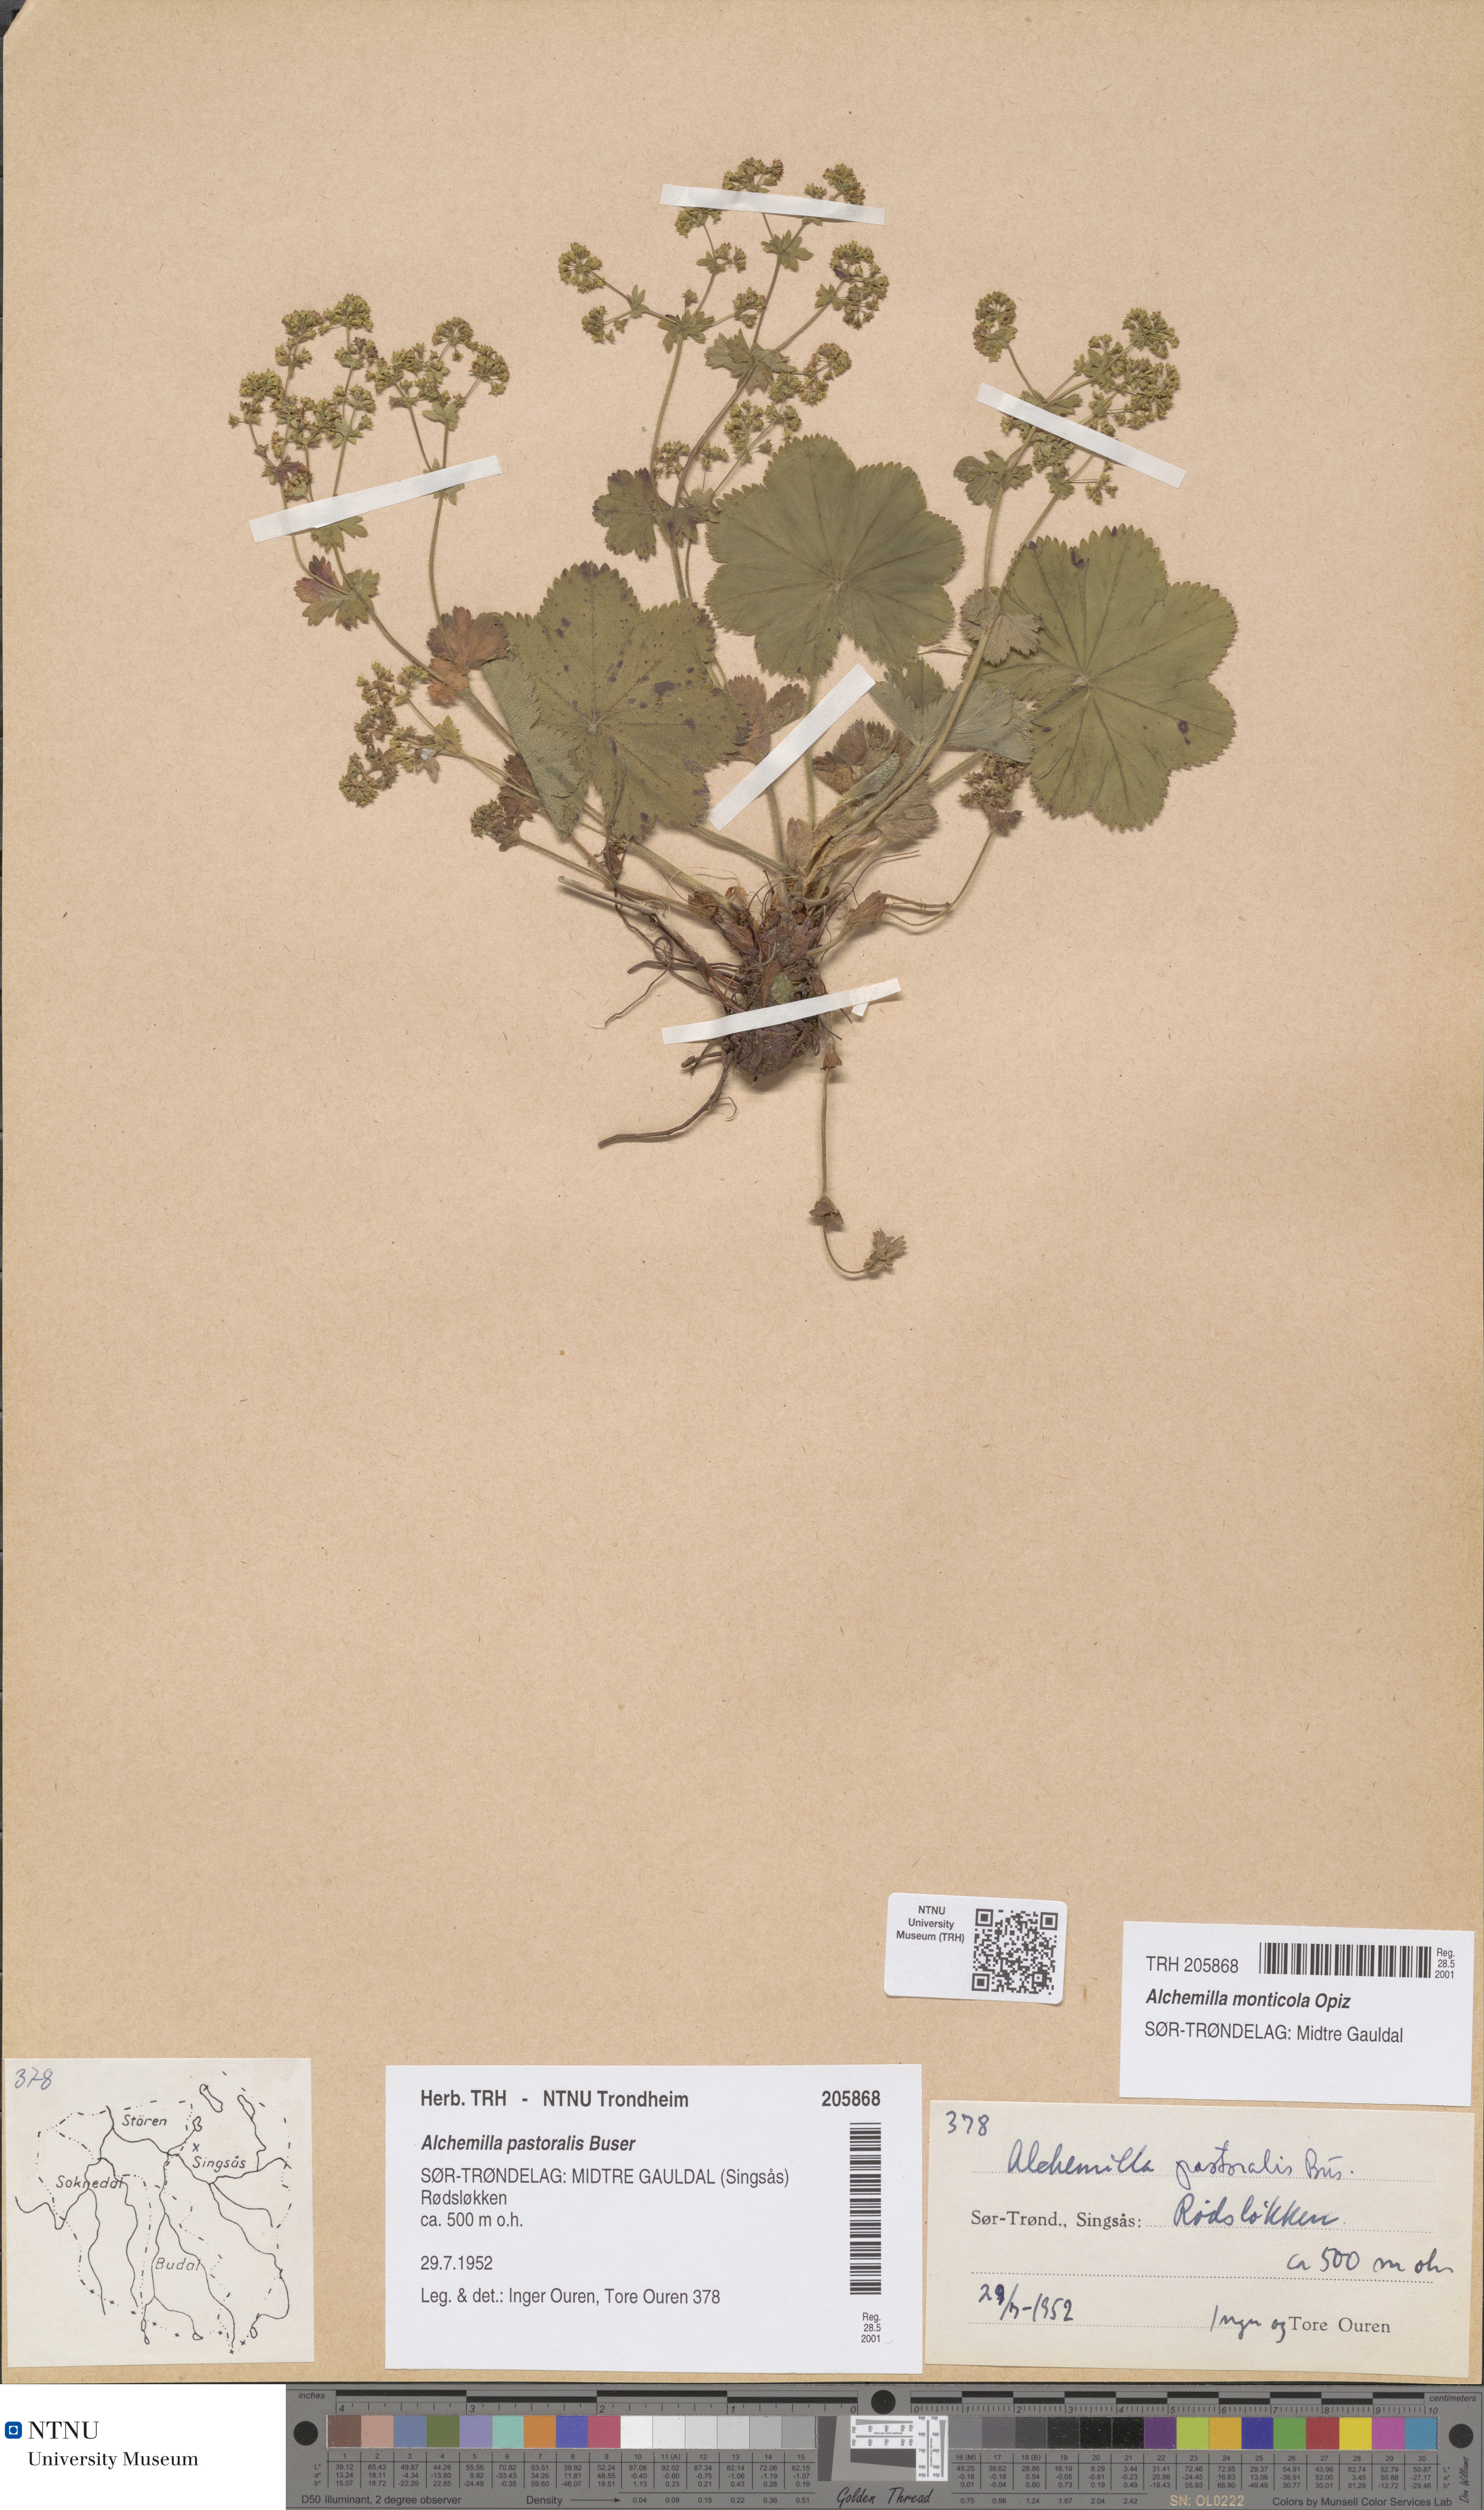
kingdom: Plantae
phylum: Tracheophyta
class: Magnoliopsida
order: Rosales
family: Rosaceae
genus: Alchemilla
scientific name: Alchemilla monticola
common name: Hairy lady's mantle
